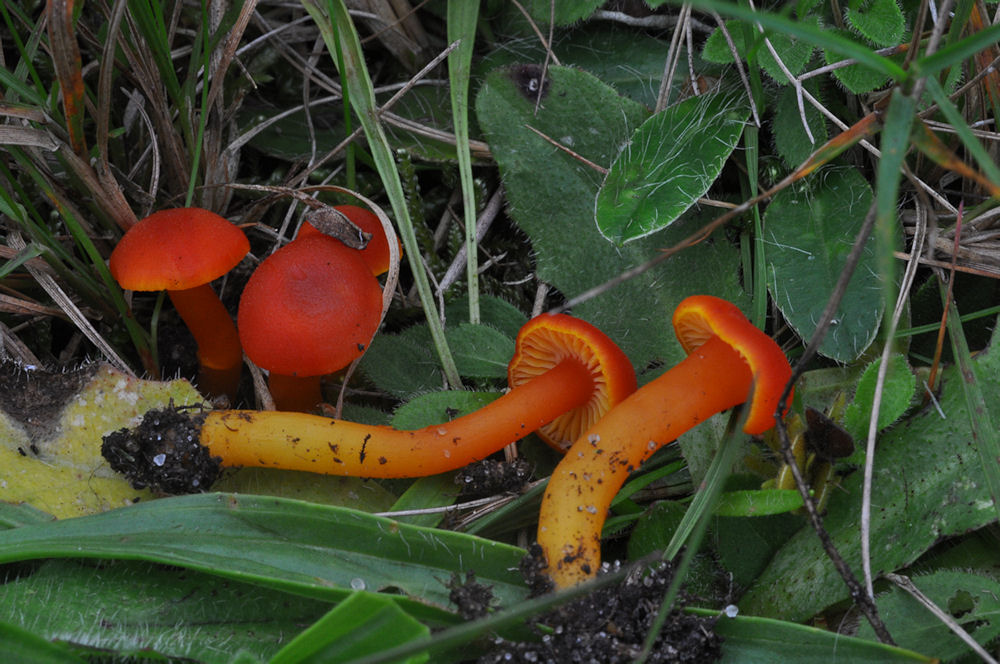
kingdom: Fungi
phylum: Basidiomycota
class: Agaricomycetes
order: Agaricales
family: Hygrophoraceae
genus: Hygrocybe
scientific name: Hygrocybe miniata
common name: mønje-vokshat
